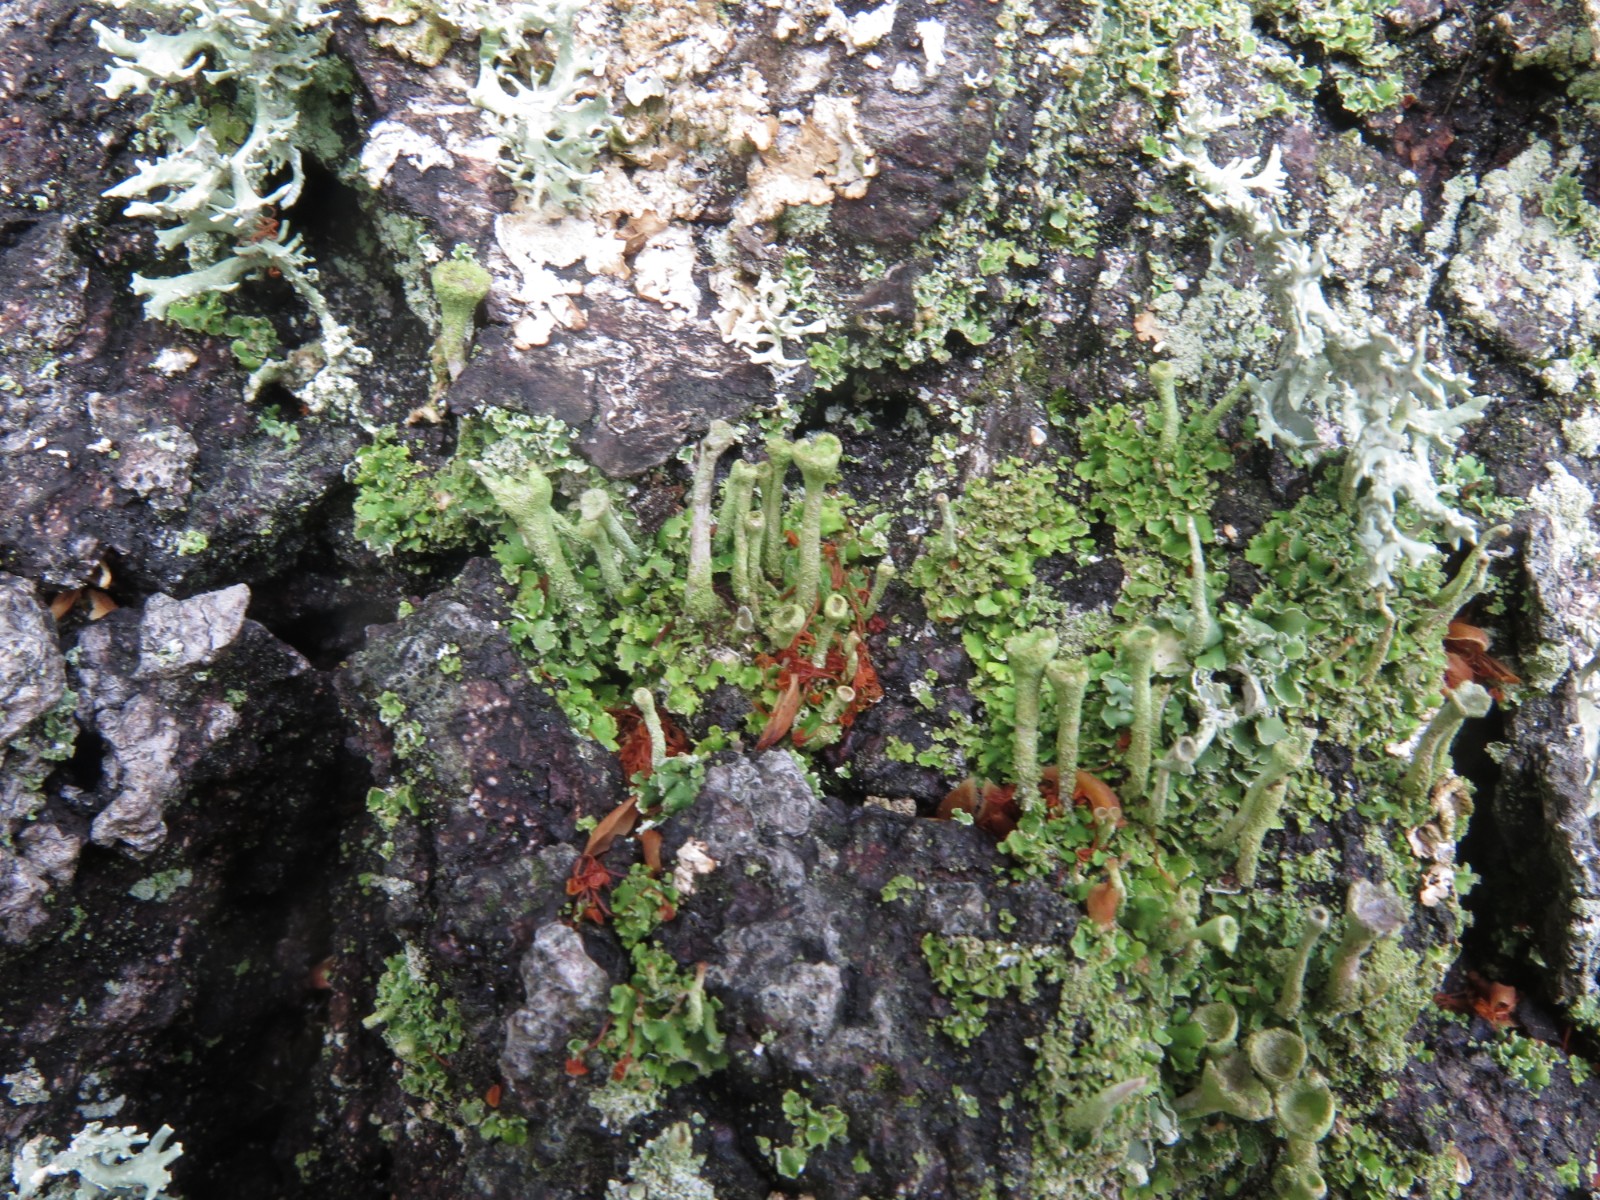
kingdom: Fungi
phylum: Ascomycota
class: Lecanoromycetes
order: Lecanorales
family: Cladoniaceae
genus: Cladonia
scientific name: Cladonia fimbriata
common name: bleggrøn bægerlav
